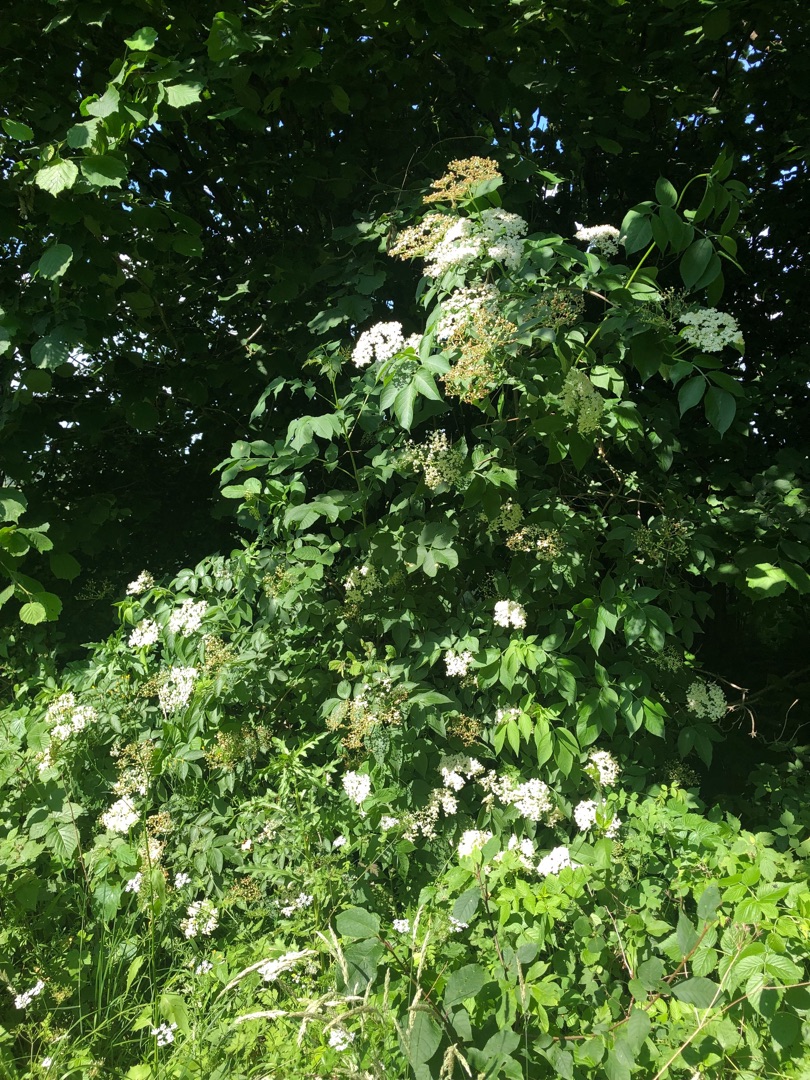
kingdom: Plantae
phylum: Tracheophyta
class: Magnoliopsida
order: Dipsacales
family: Viburnaceae
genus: Sambucus
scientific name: Sambucus nigra
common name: Almindelig hyld
